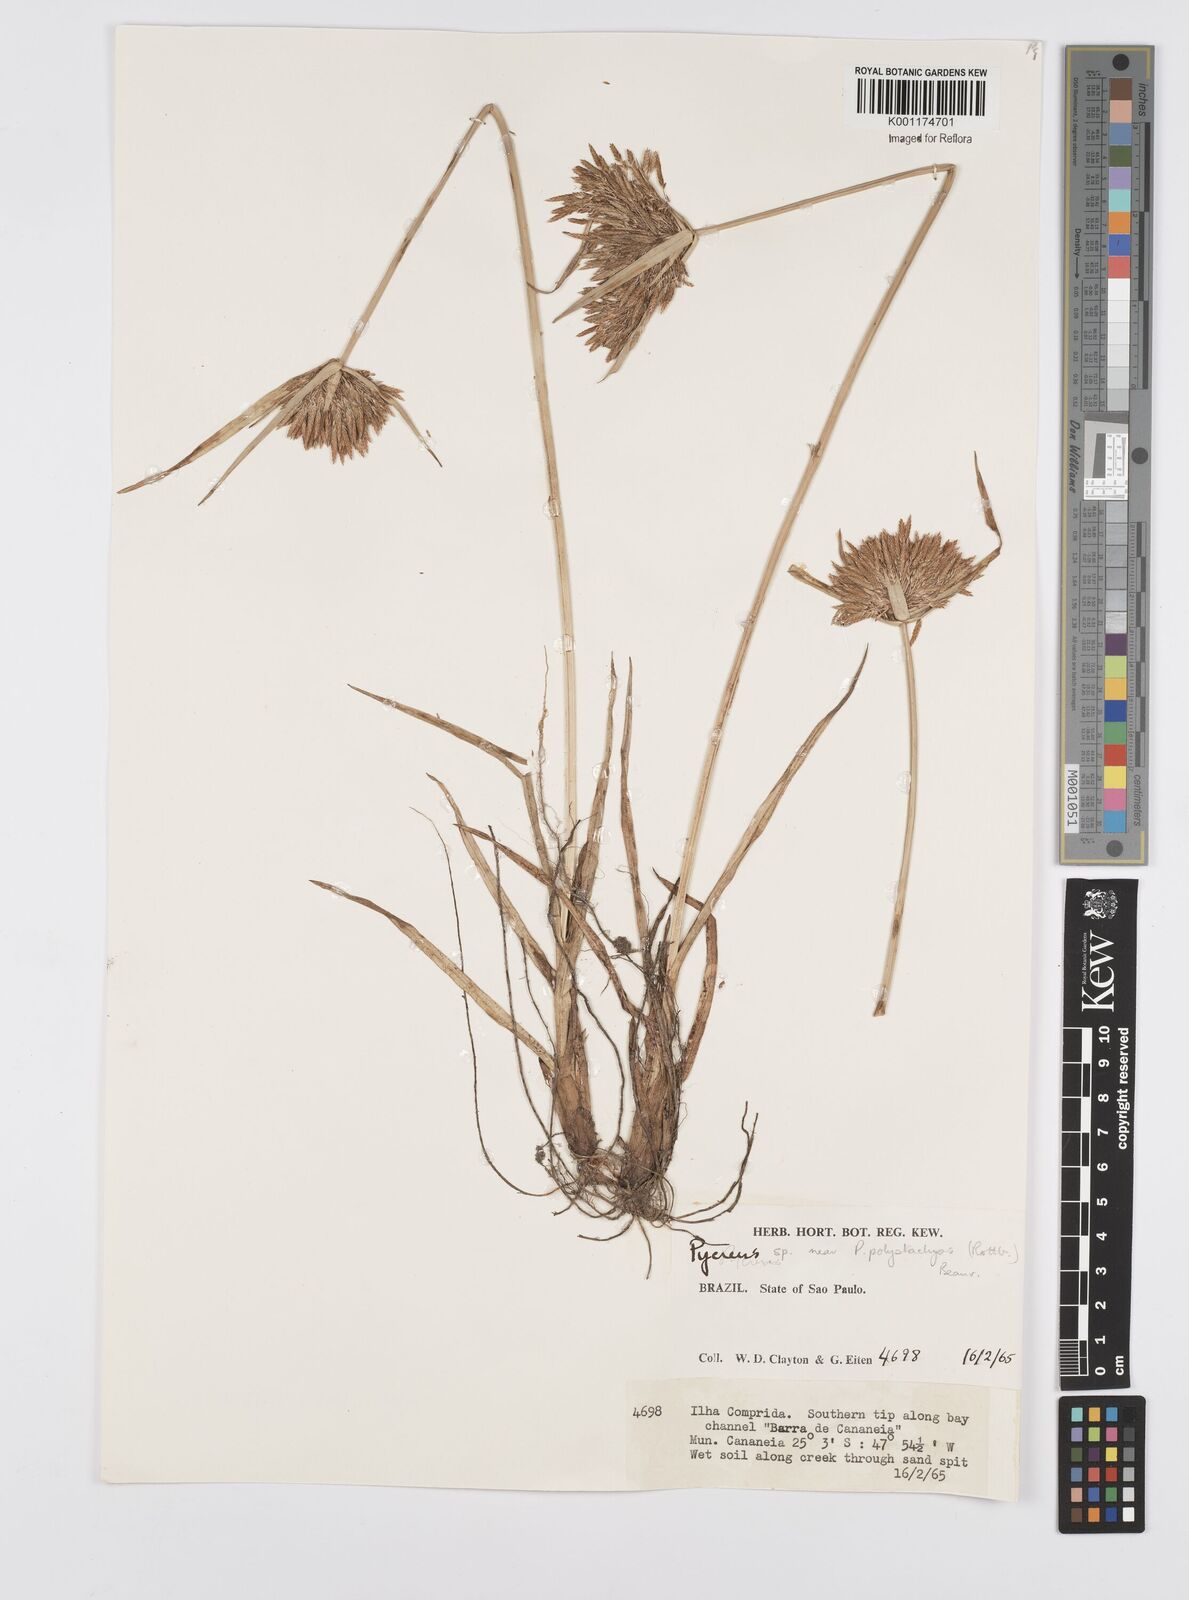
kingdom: Plantae
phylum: Tracheophyta
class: Liliopsida
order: Poales
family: Cyperaceae
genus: Cyperus
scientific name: Cyperus polystachyos
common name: Bunchy flat sedge
